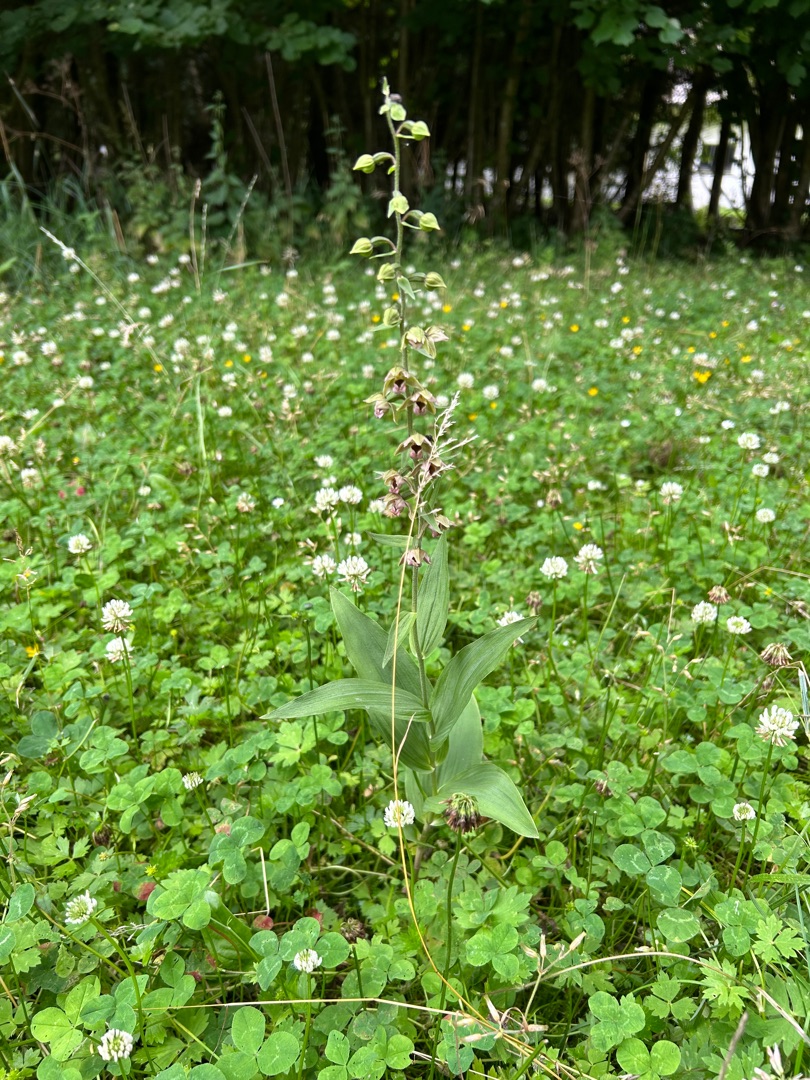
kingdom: Plantae
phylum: Tracheophyta
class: Liliopsida
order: Asparagales
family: Orchidaceae
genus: Epipactis
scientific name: Epipactis helleborine
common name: Skov-hullæbe
